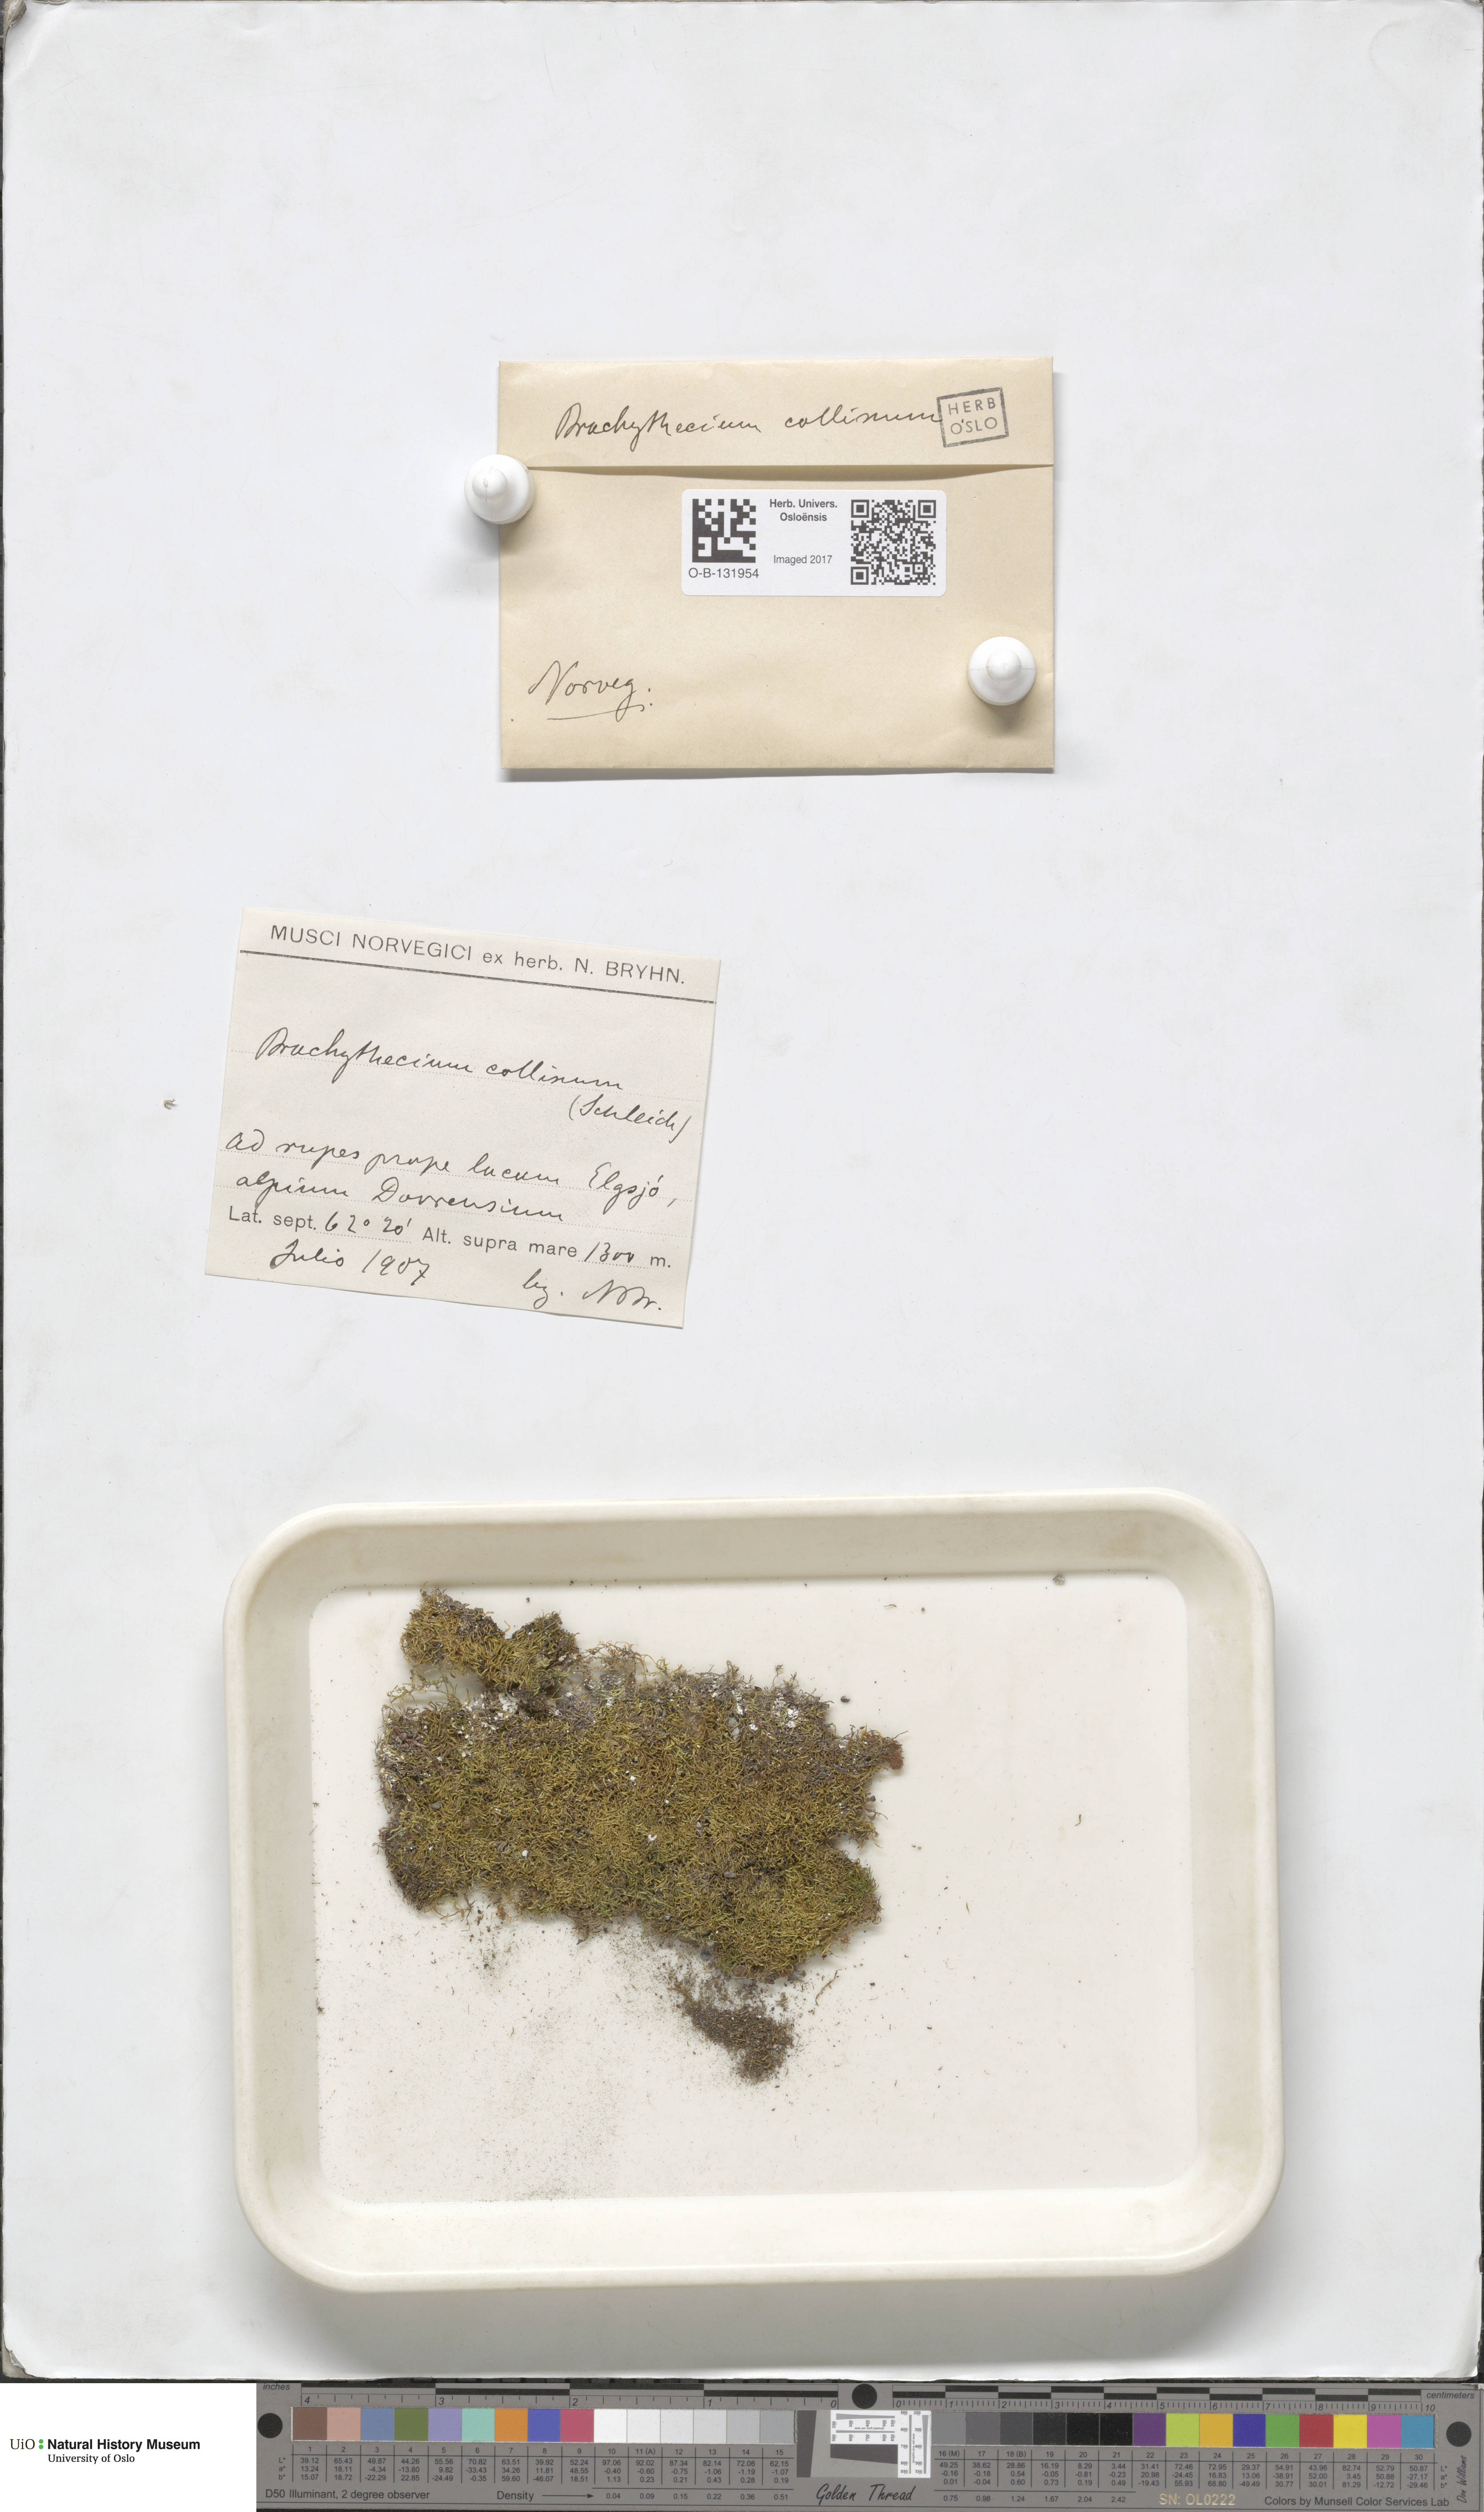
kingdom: Plantae
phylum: Bryophyta
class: Bryopsida
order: Hypnales
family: Brachytheciaceae
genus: Brachytheciastrum
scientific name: Brachytheciastrum collinum
